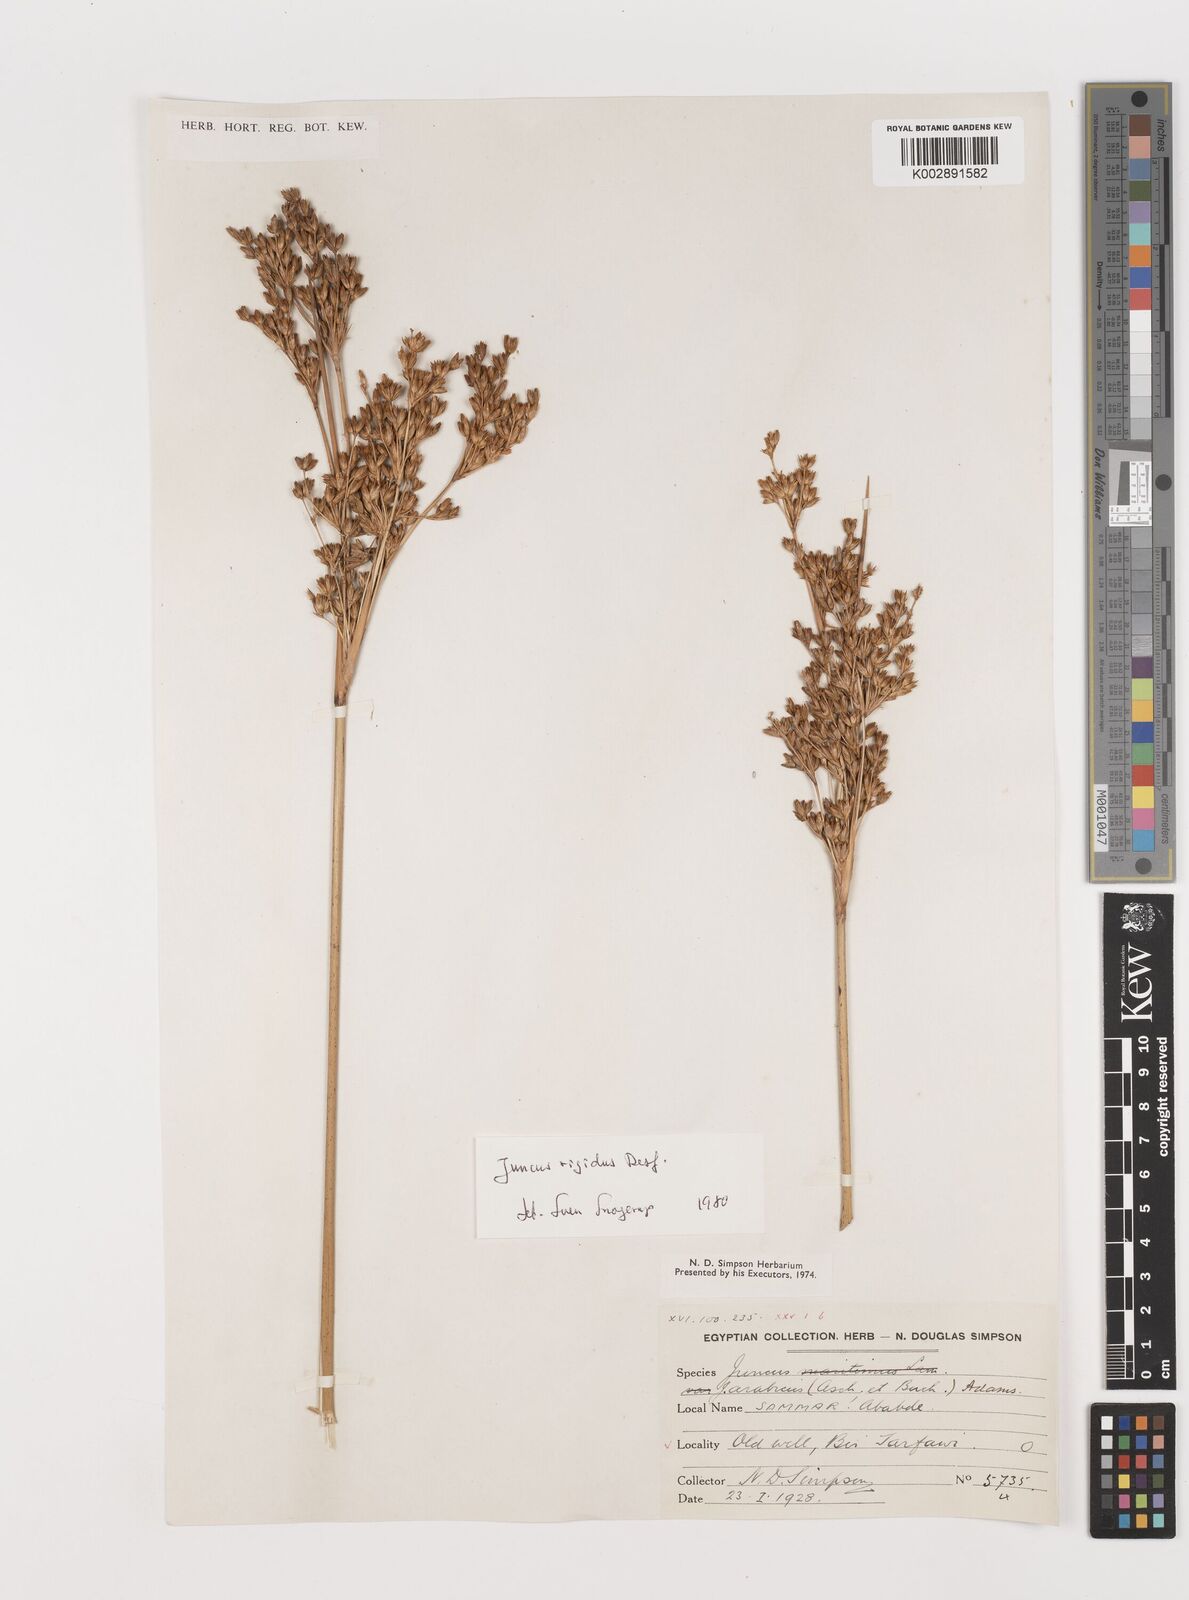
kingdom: Plantae
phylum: Tracheophyta
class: Liliopsida
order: Poales
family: Juncaceae
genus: Juncus
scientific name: Juncus rigidus
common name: Hard sea rush
